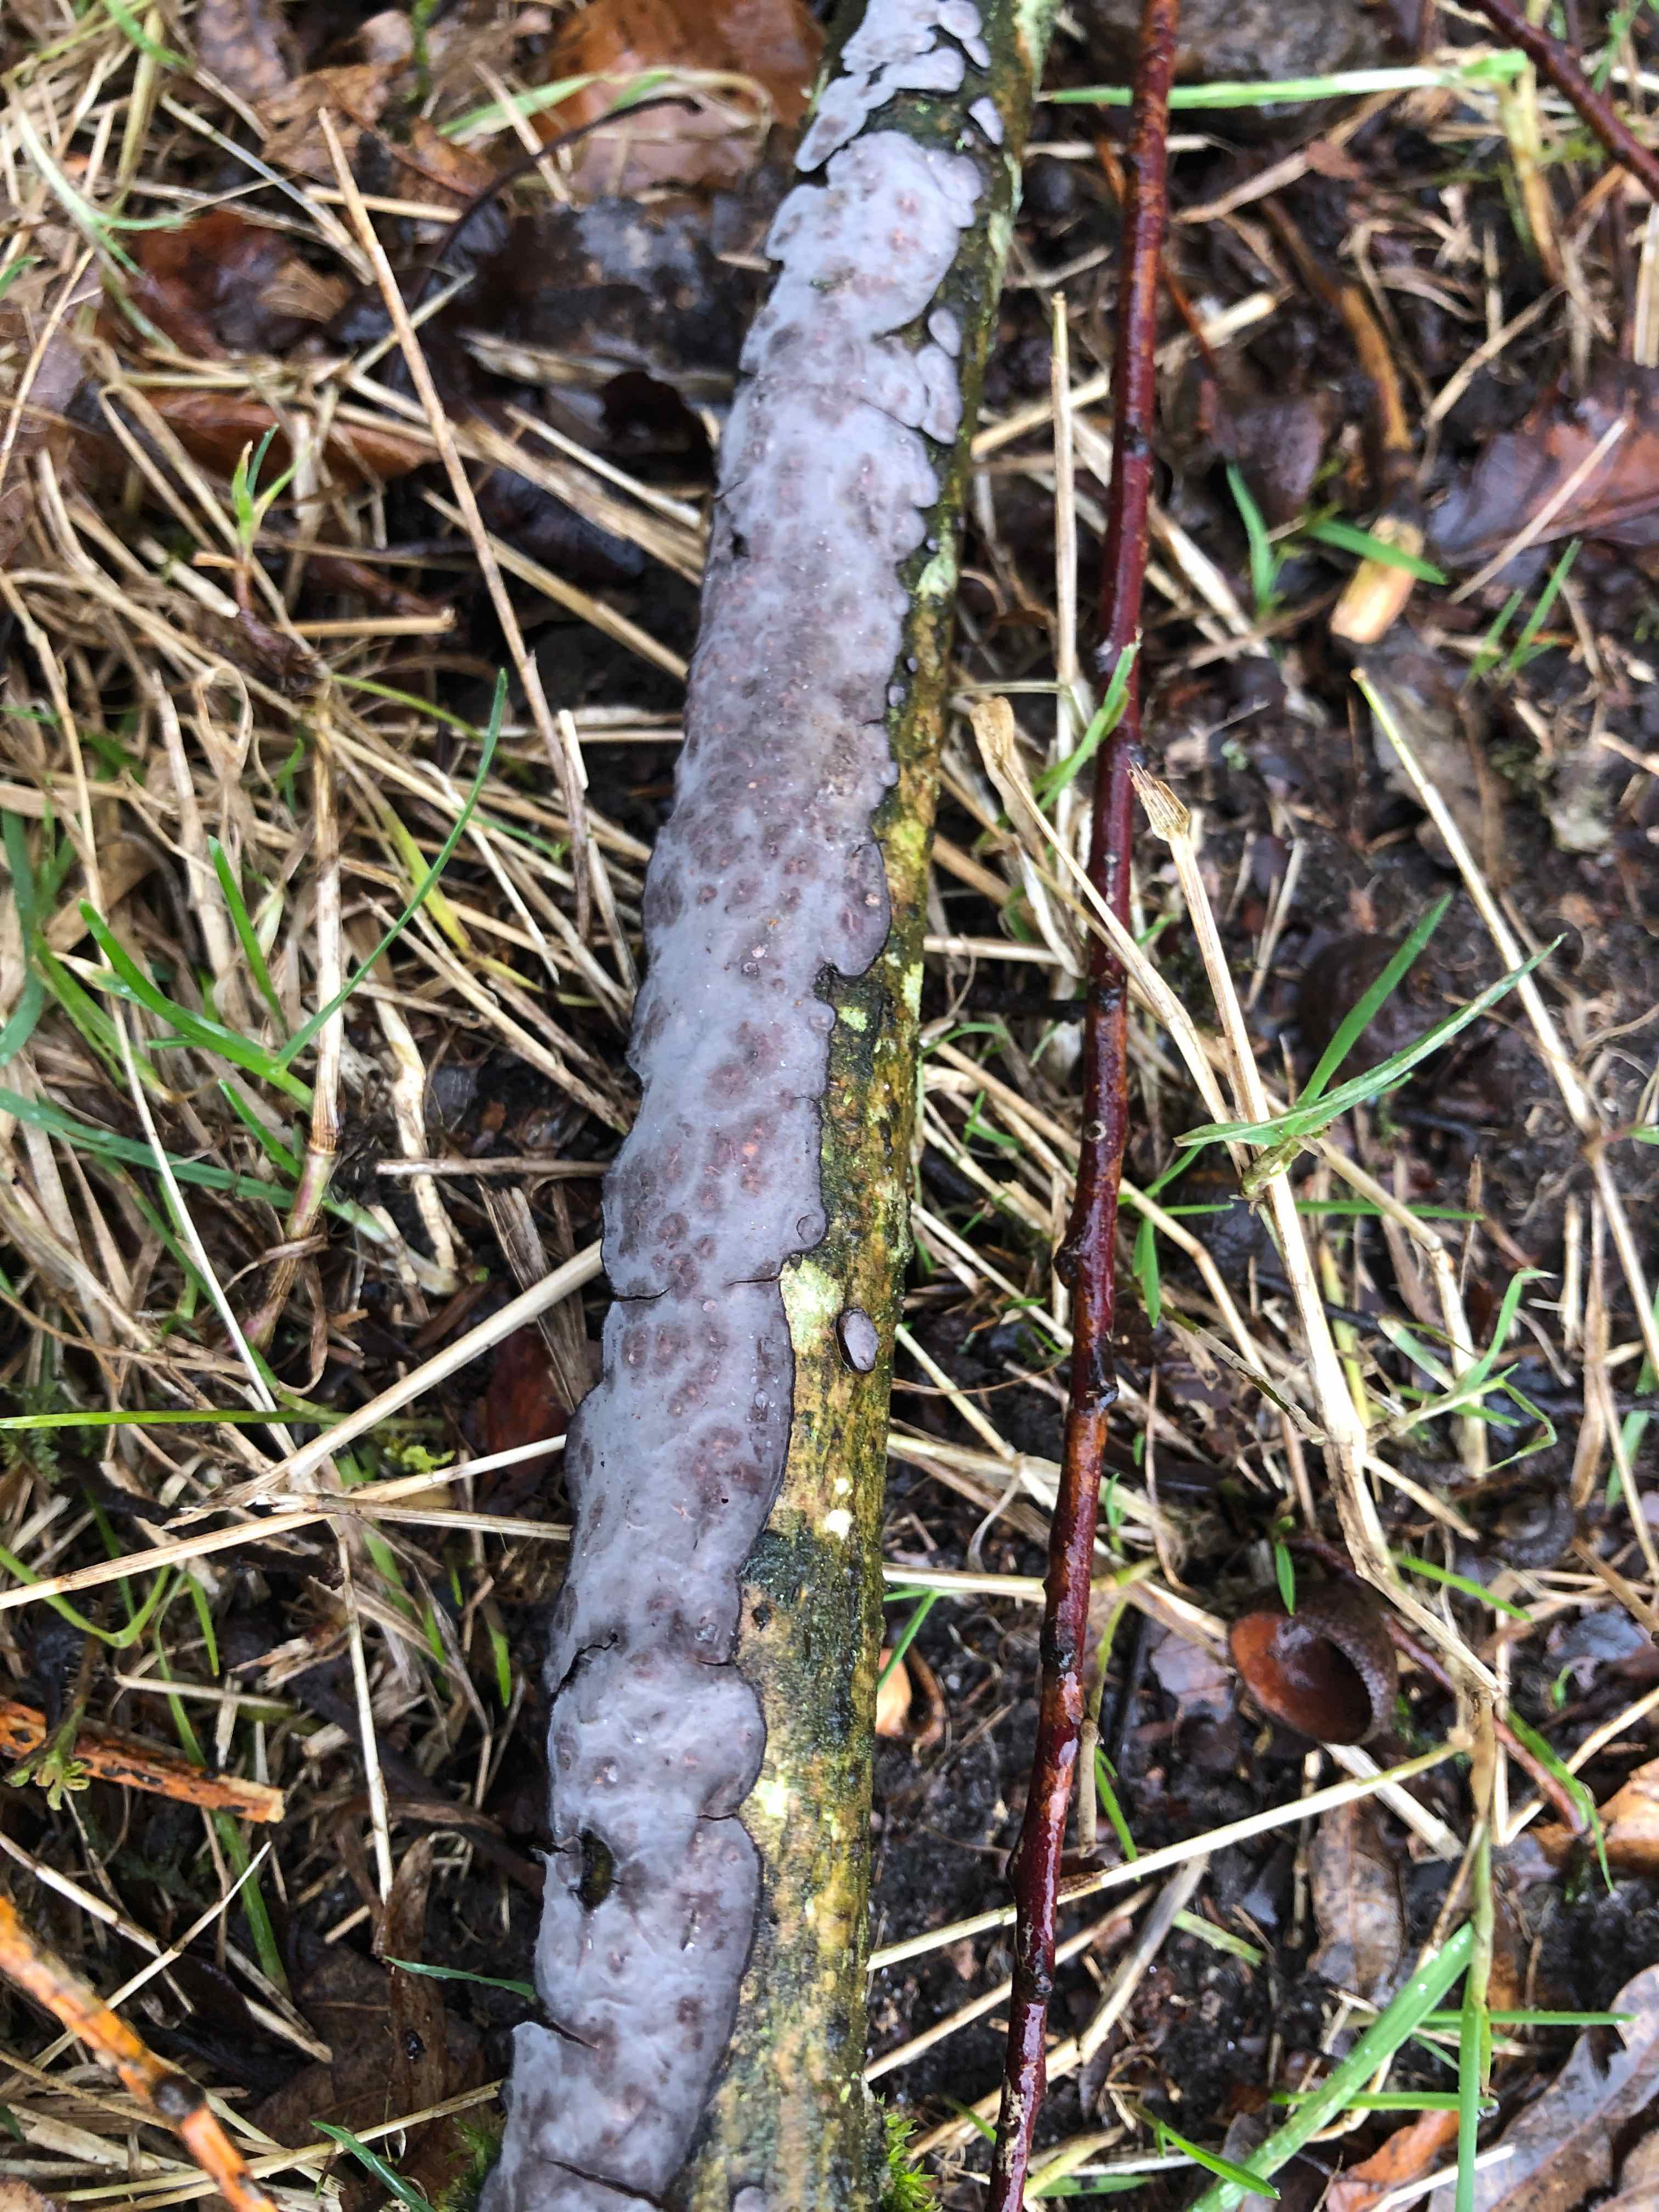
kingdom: Fungi
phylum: Basidiomycota
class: Agaricomycetes
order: Russulales
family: Peniophoraceae
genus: Peniophora
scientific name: Peniophora quercina
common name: ege-voksskind
